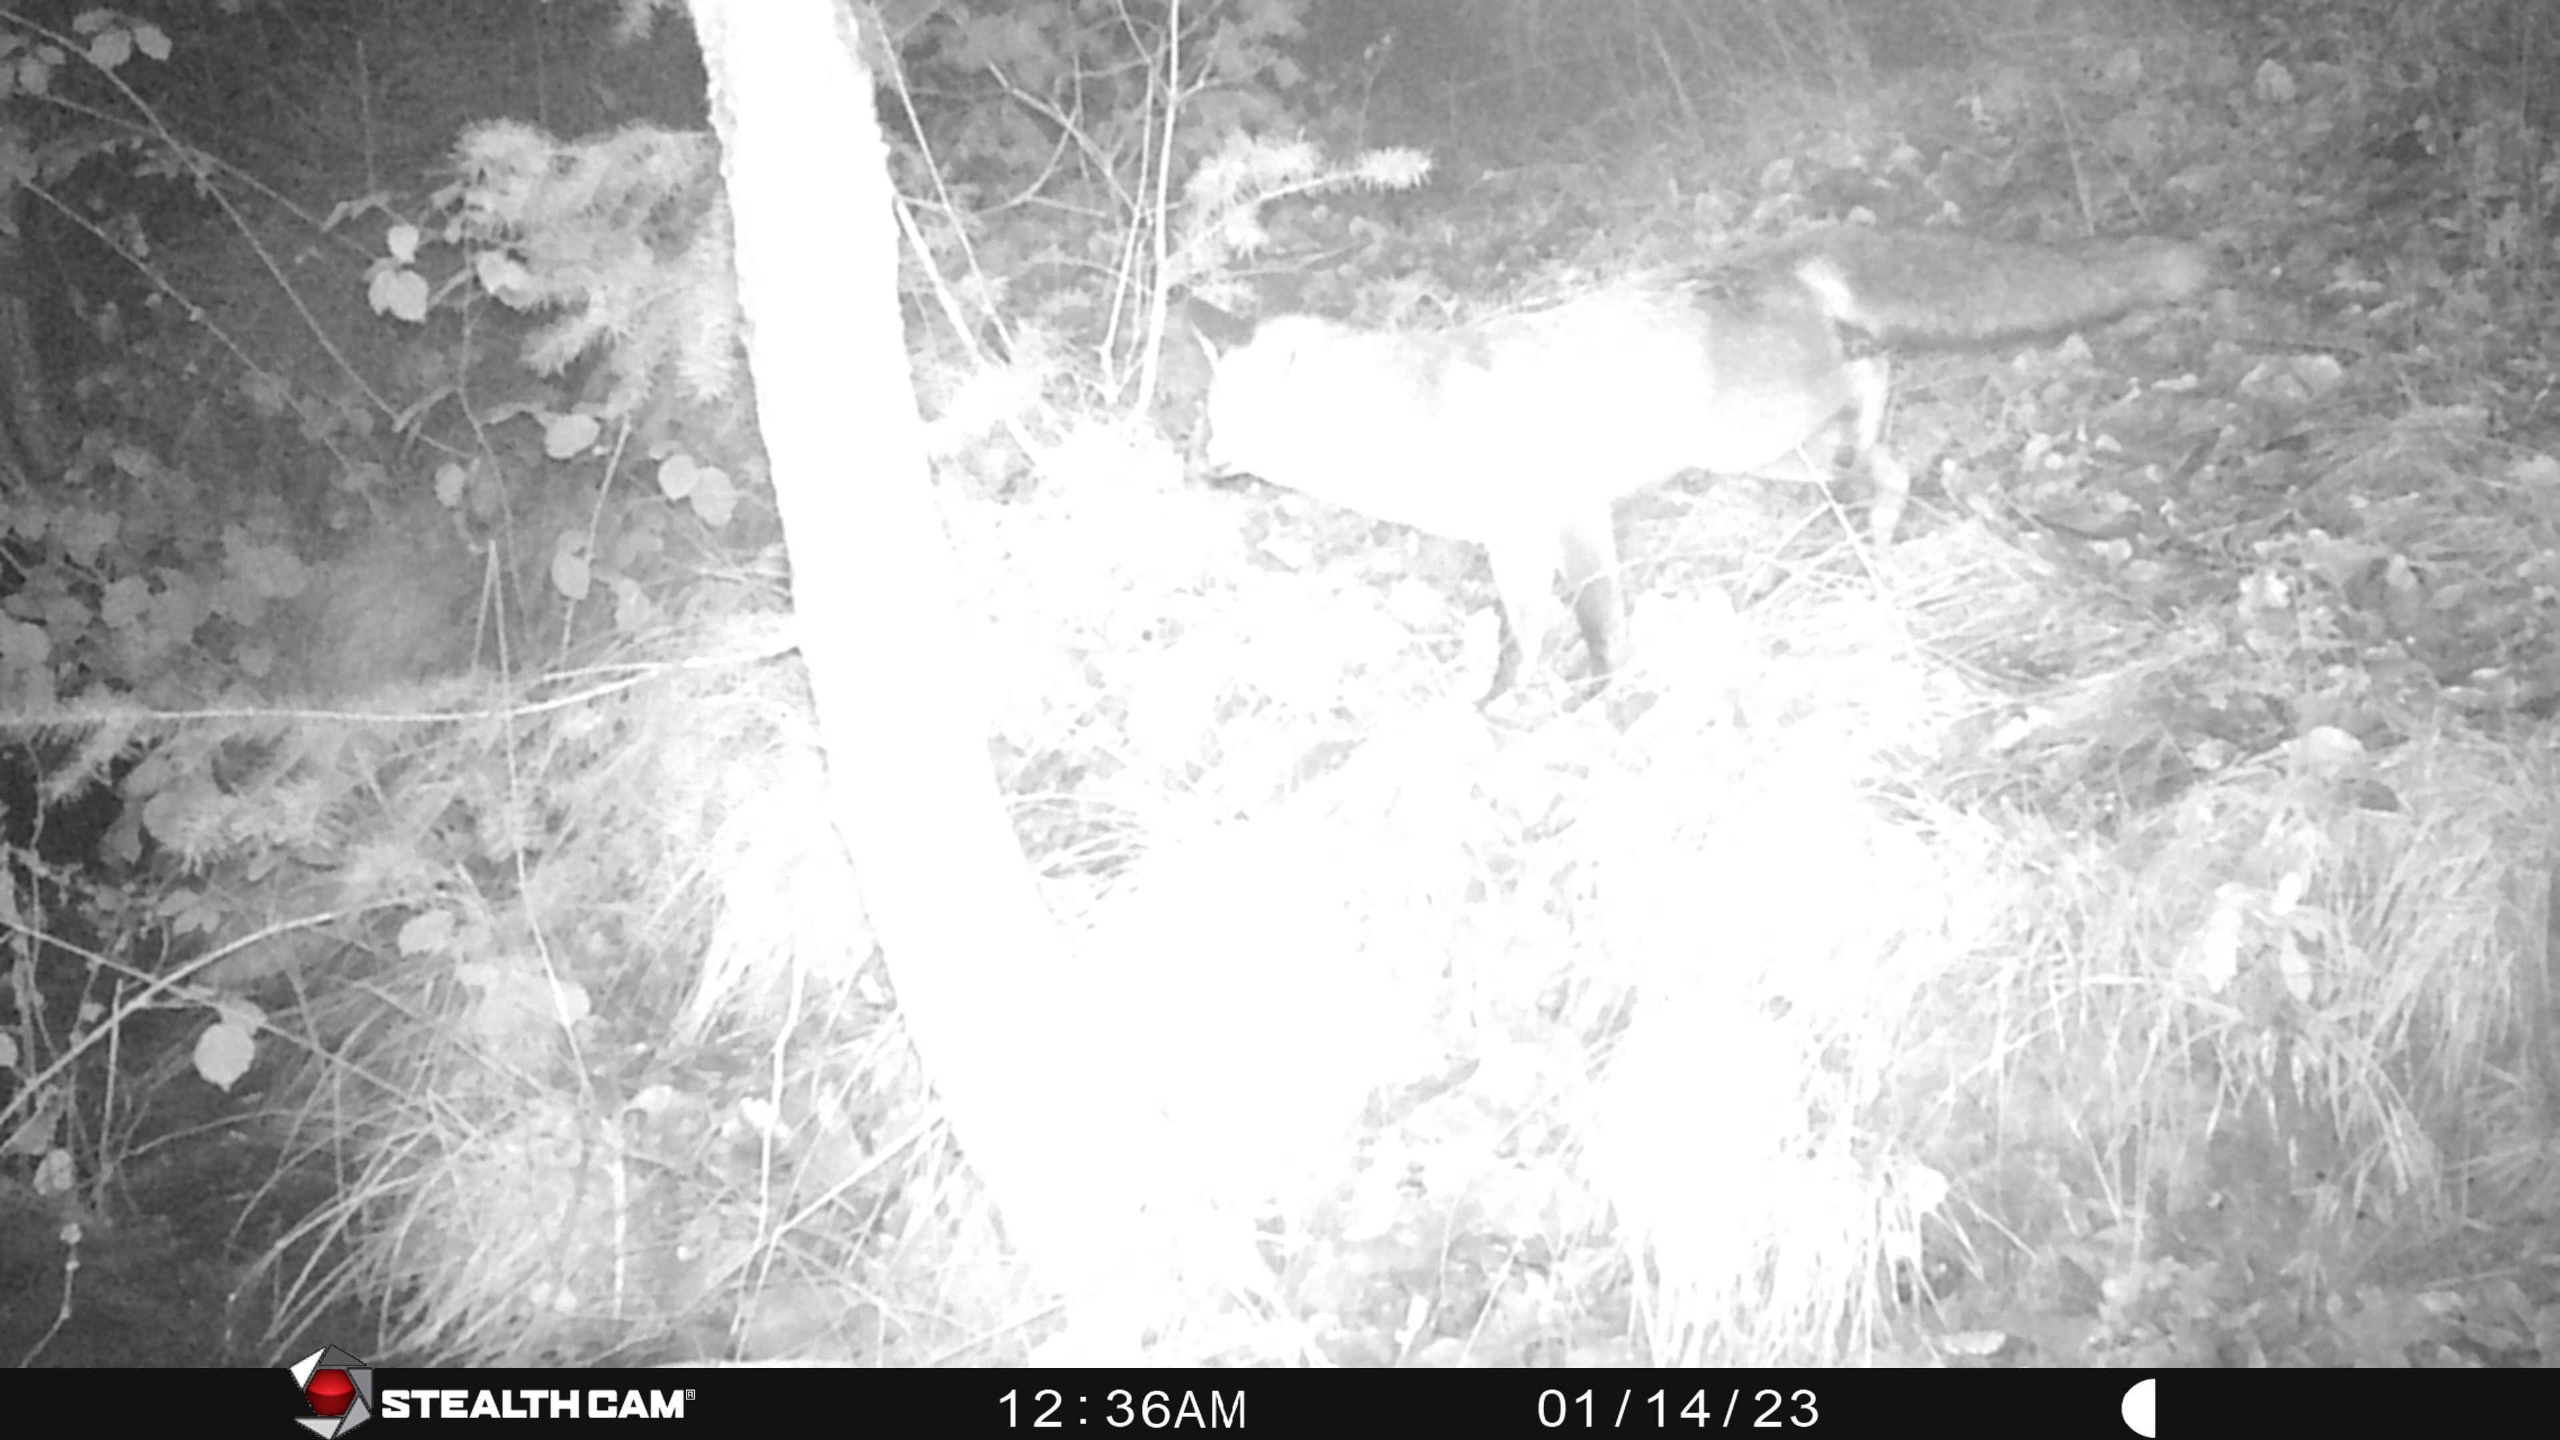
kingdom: Animalia
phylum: Chordata
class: Mammalia
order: Carnivora
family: Canidae
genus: Vulpes
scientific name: Vulpes vulpes
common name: Ræv
